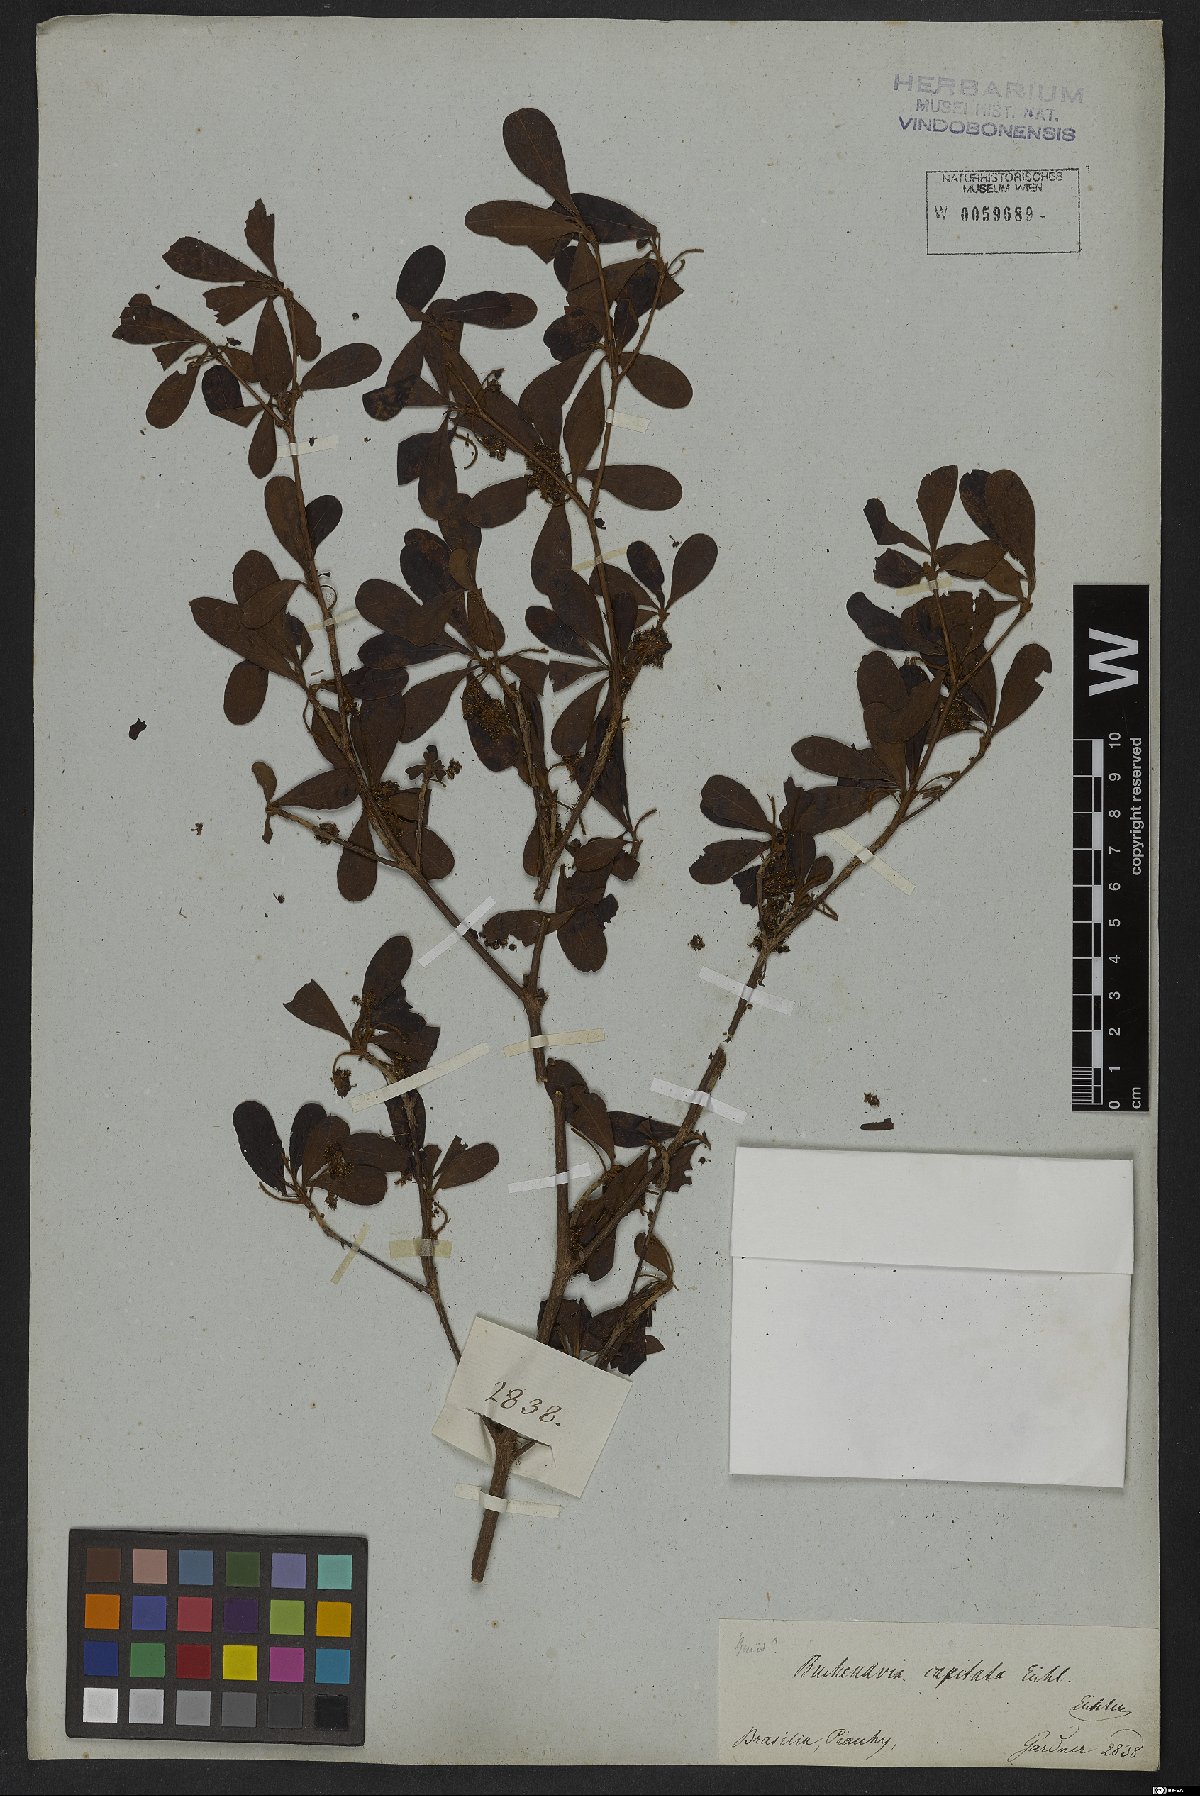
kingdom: Plantae
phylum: Tracheophyta
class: Magnoliopsida
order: Myrtales
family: Combretaceae
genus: Terminalia
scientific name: Terminalia tetraphylla
